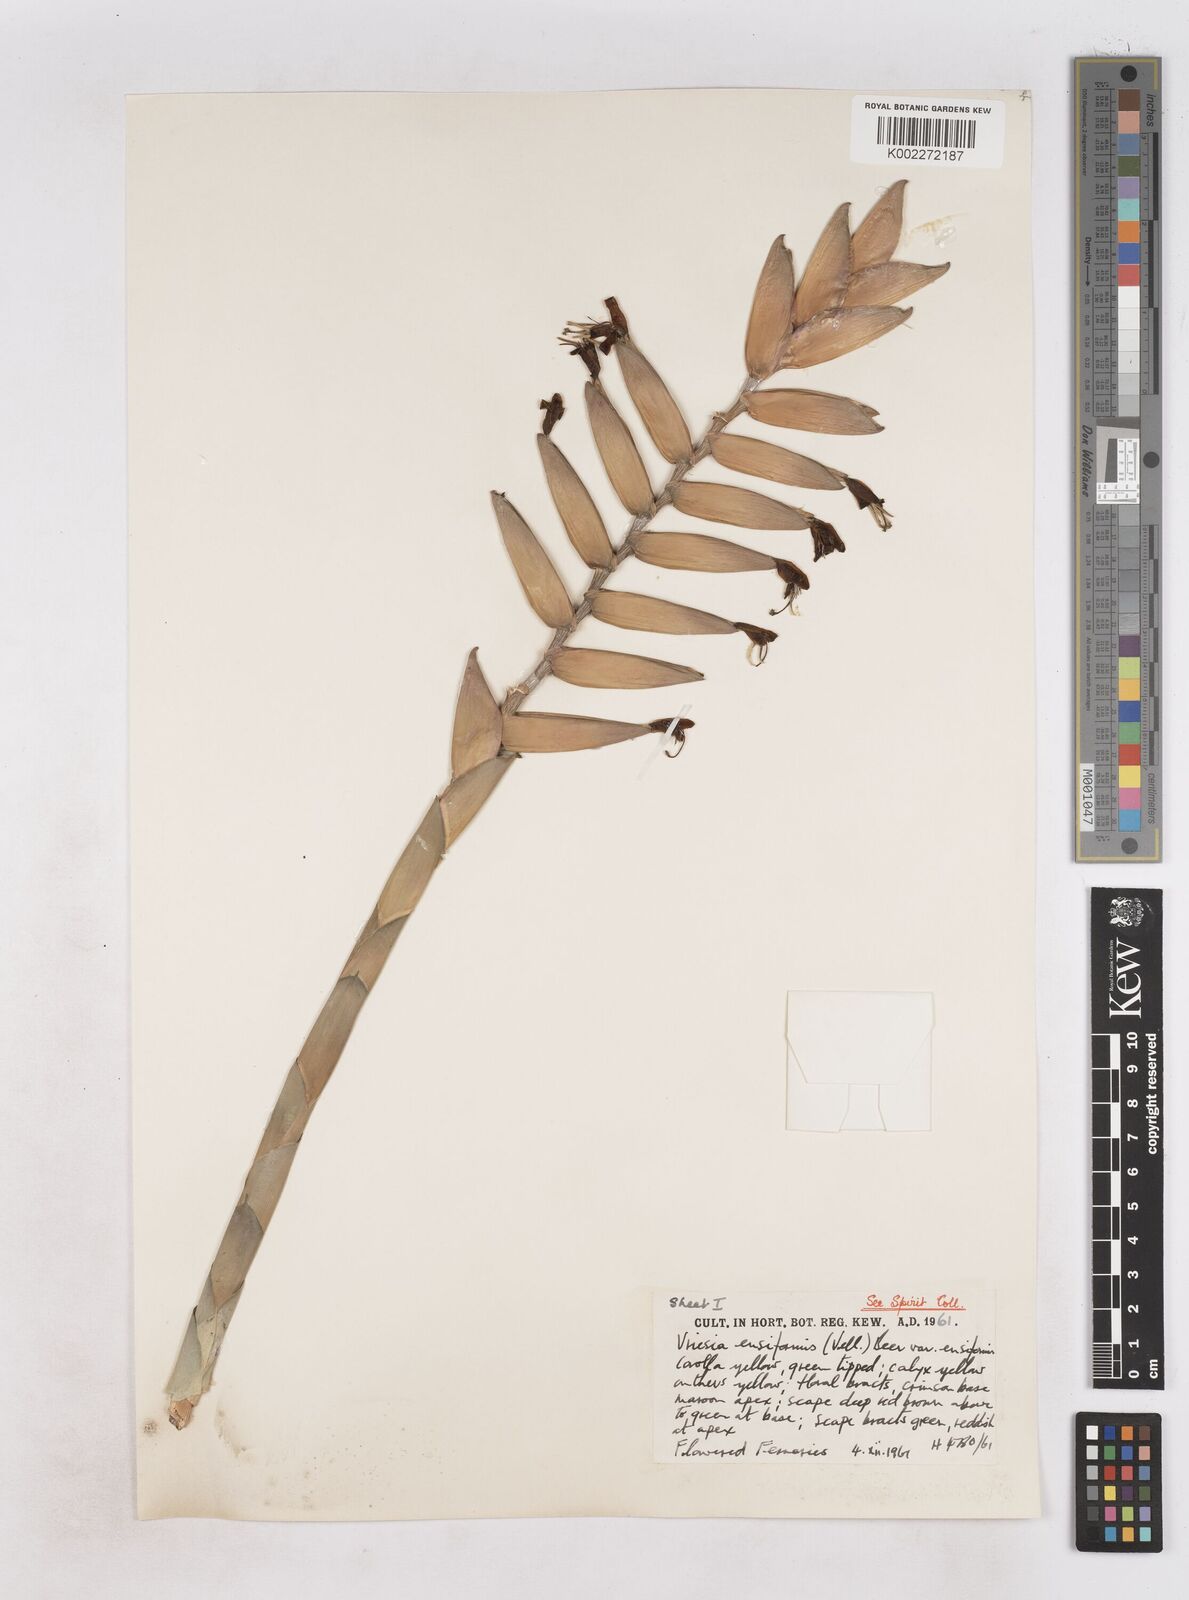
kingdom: Plantae
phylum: Tracheophyta
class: Liliopsida
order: Poales
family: Bromeliaceae
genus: Vriesea
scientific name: Vriesea ensiformis
